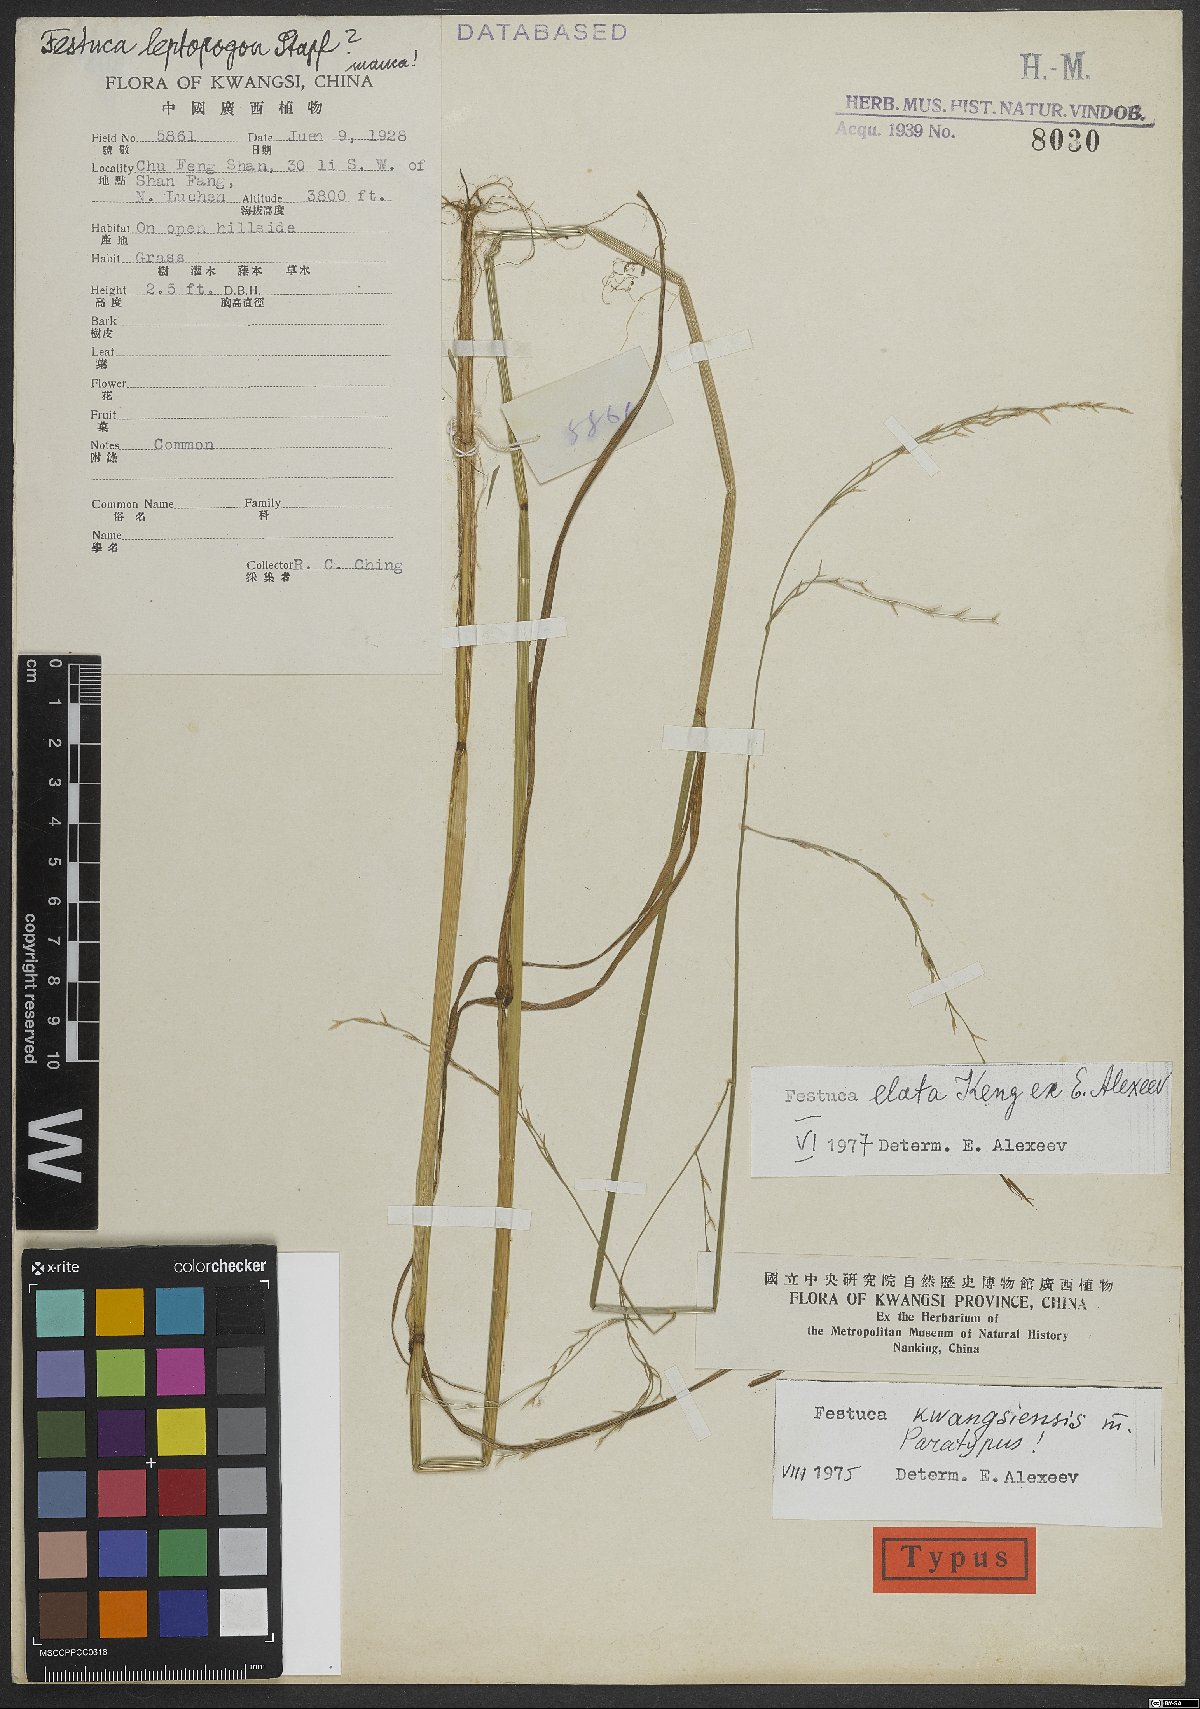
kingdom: Plantae
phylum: Tracheophyta
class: Liliopsida
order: Poales
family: Poaceae
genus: Festuca
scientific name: Festuca elata
